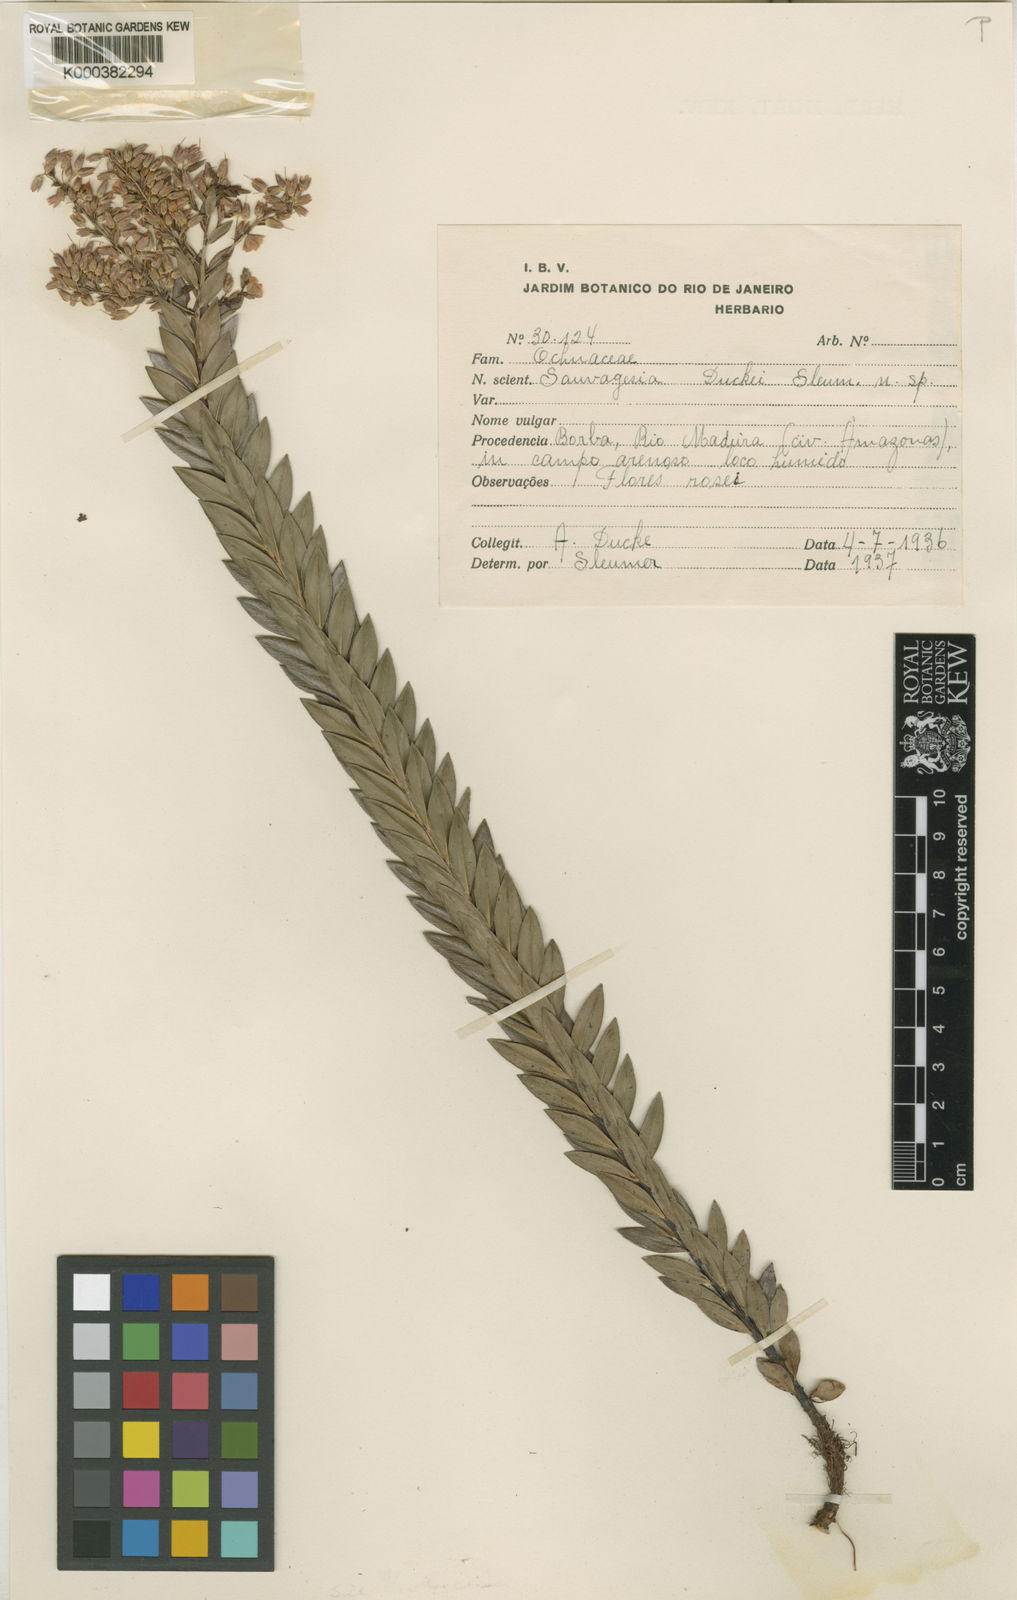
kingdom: Plantae
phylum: Tracheophyta
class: Magnoliopsida
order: Malpighiales
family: Ochnaceae
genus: Sauvagesia
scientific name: Sauvagesia ramosa
